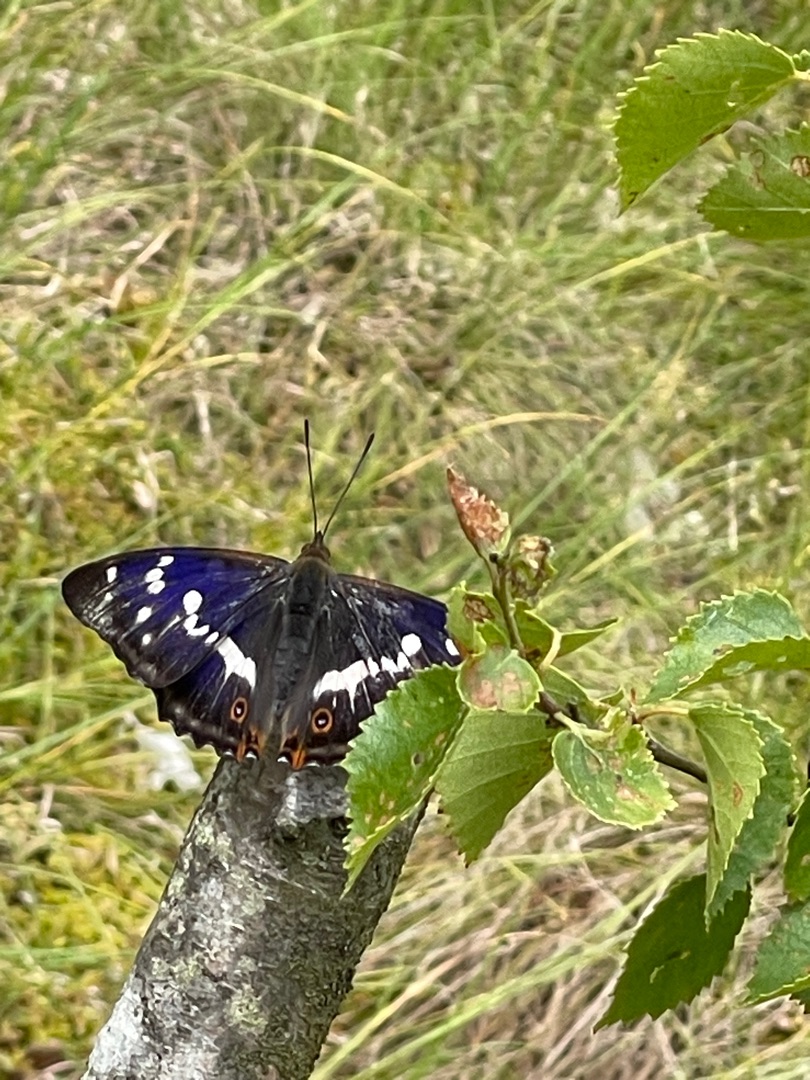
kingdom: Animalia
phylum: Arthropoda
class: Insecta
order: Lepidoptera
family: Nymphalidae
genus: Apatura
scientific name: Apatura iris
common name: Iris
